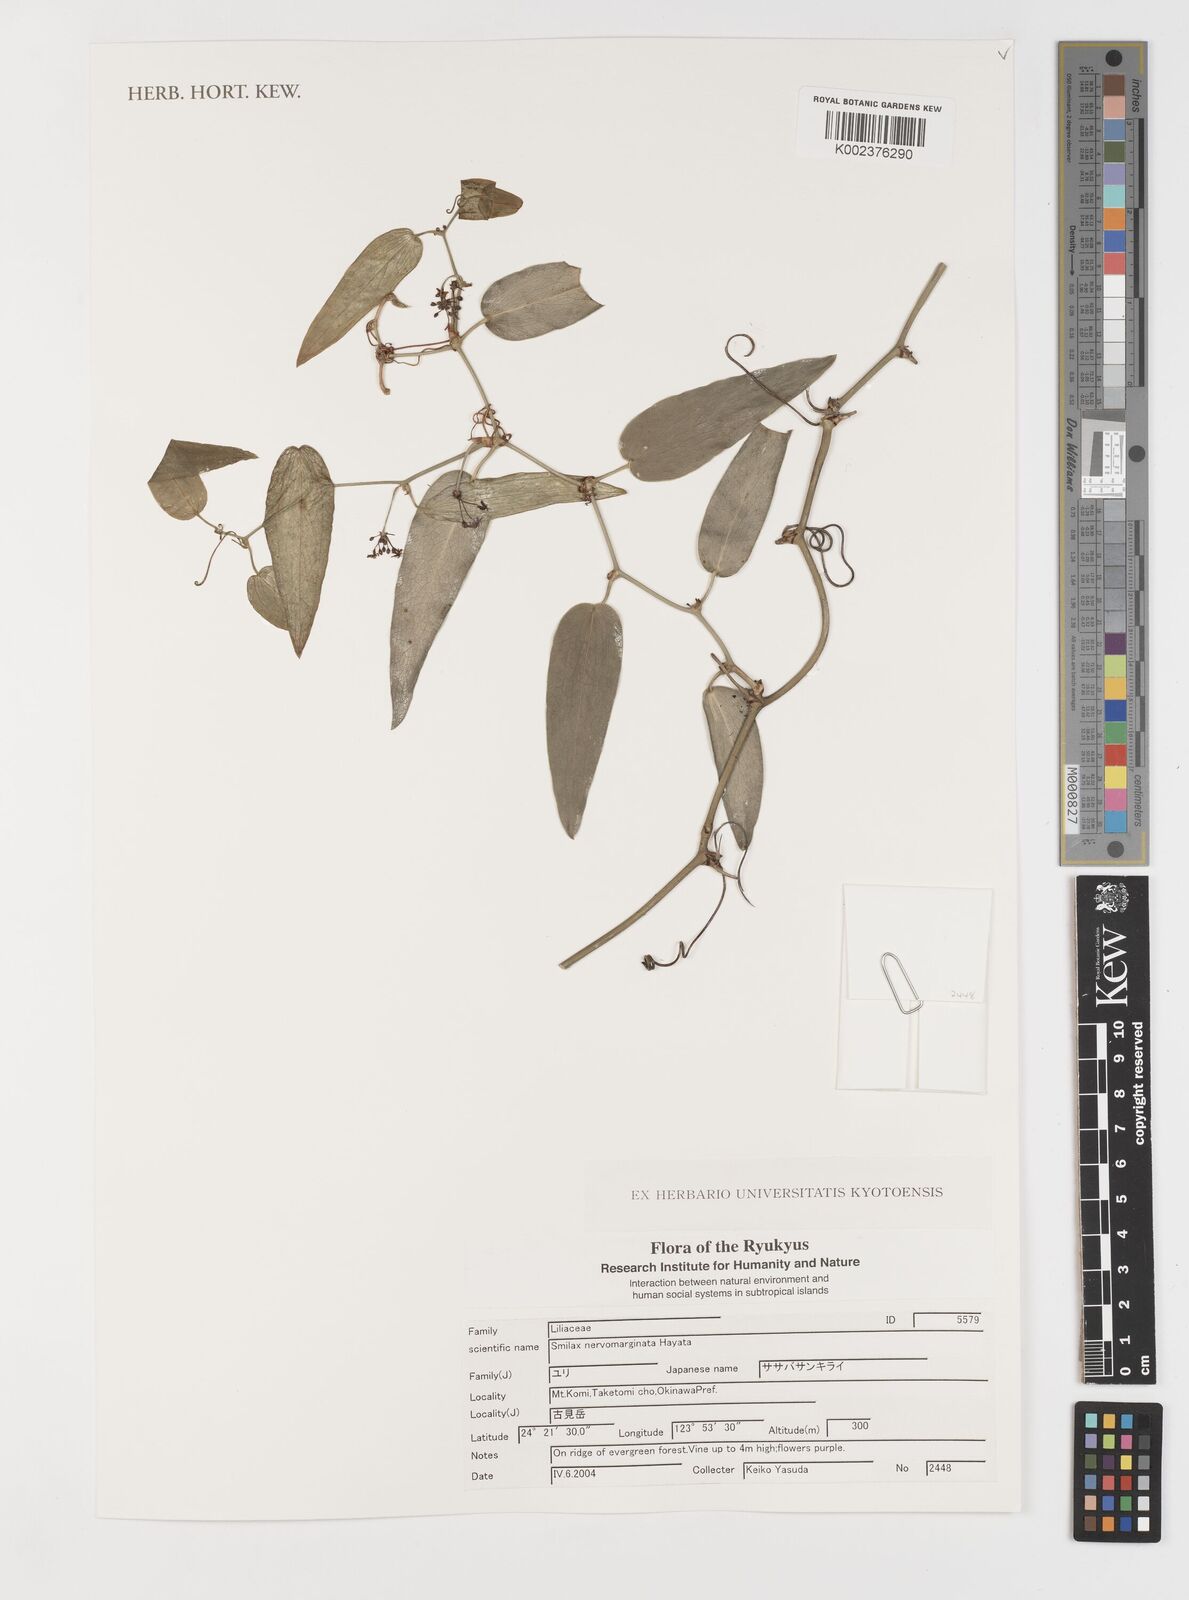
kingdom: Plantae
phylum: Tracheophyta
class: Liliopsida
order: Liliales
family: Smilacaceae
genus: Smilax
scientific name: Smilax nervomarginata
